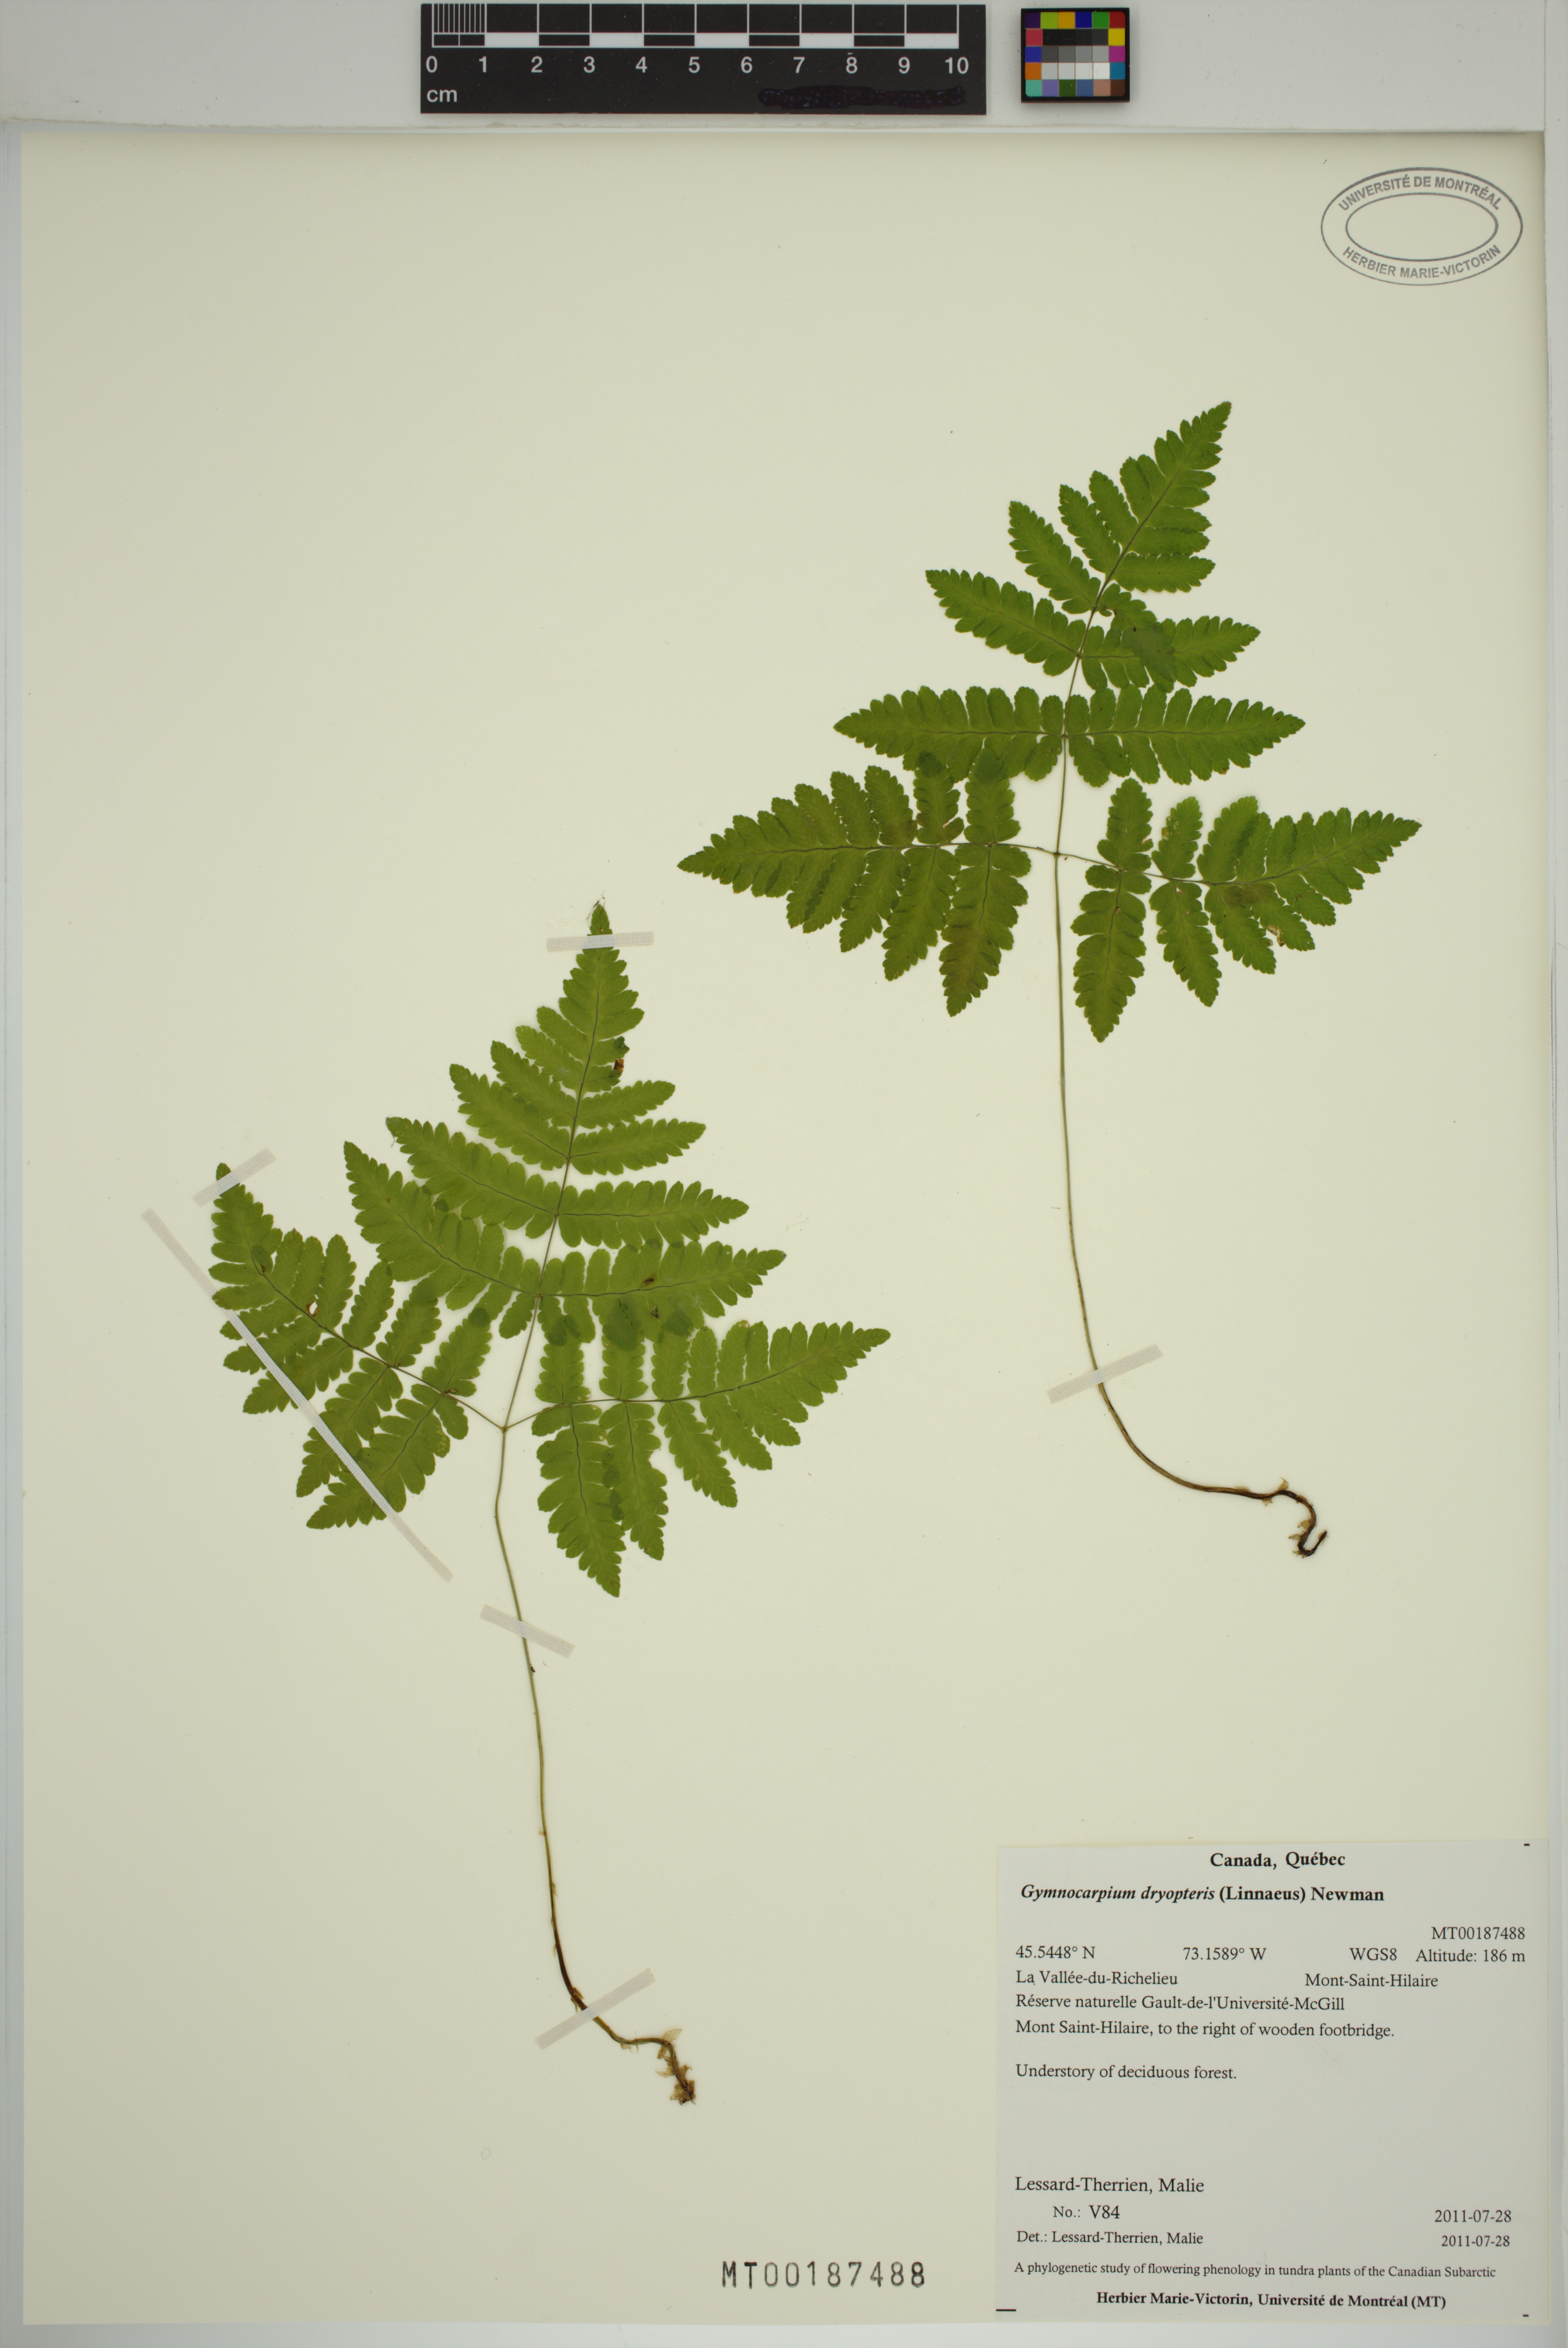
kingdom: Plantae
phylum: Tracheophyta
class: Polypodiopsida
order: Polypodiales
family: Cystopteridaceae
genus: Gymnocarpium
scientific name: Gymnocarpium dryopteris
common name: Oak fern
